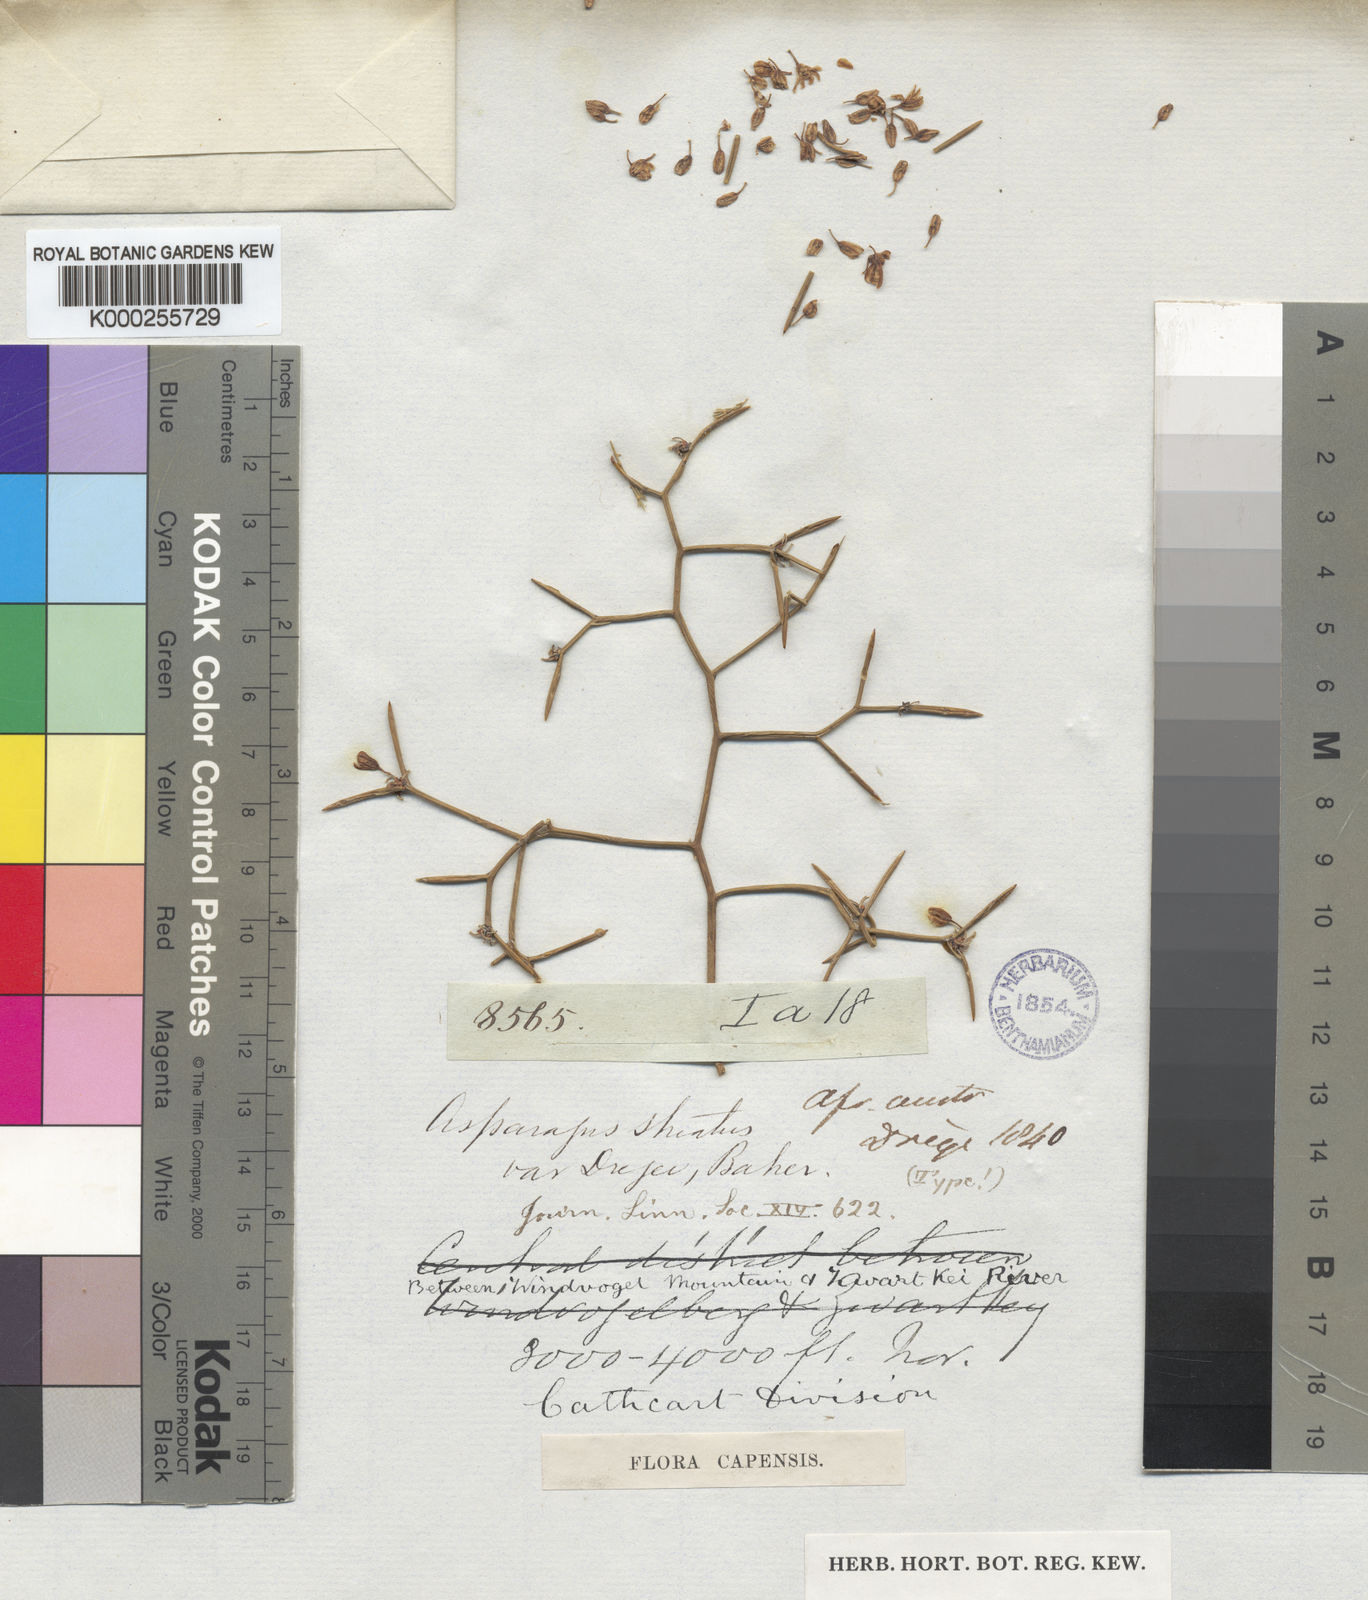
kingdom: Plantae
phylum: Tracheophyta
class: Liliopsida
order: Asparagales
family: Asparagaceae
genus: Asparagus
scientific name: Asparagus striatus
